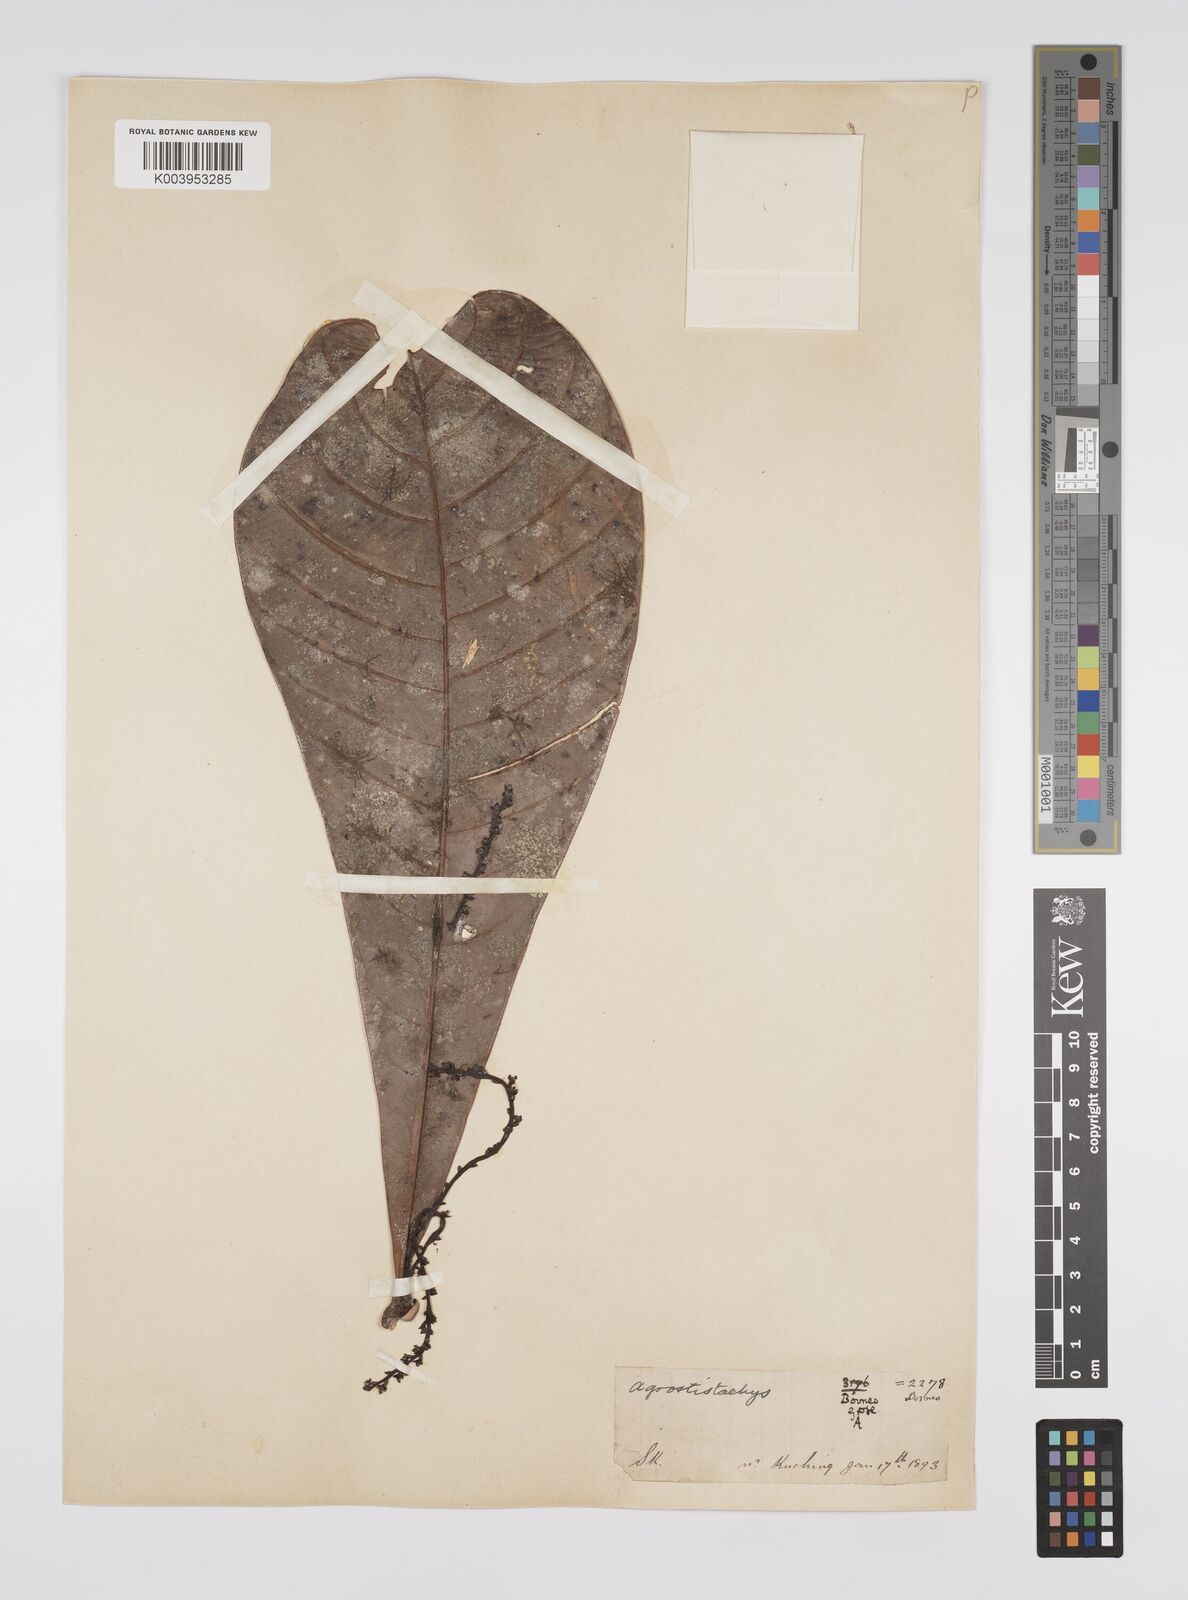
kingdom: Plantae
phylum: Tracheophyta
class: Magnoliopsida
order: Malpighiales
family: Euphorbiaceae
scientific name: Euphorbiaceae
